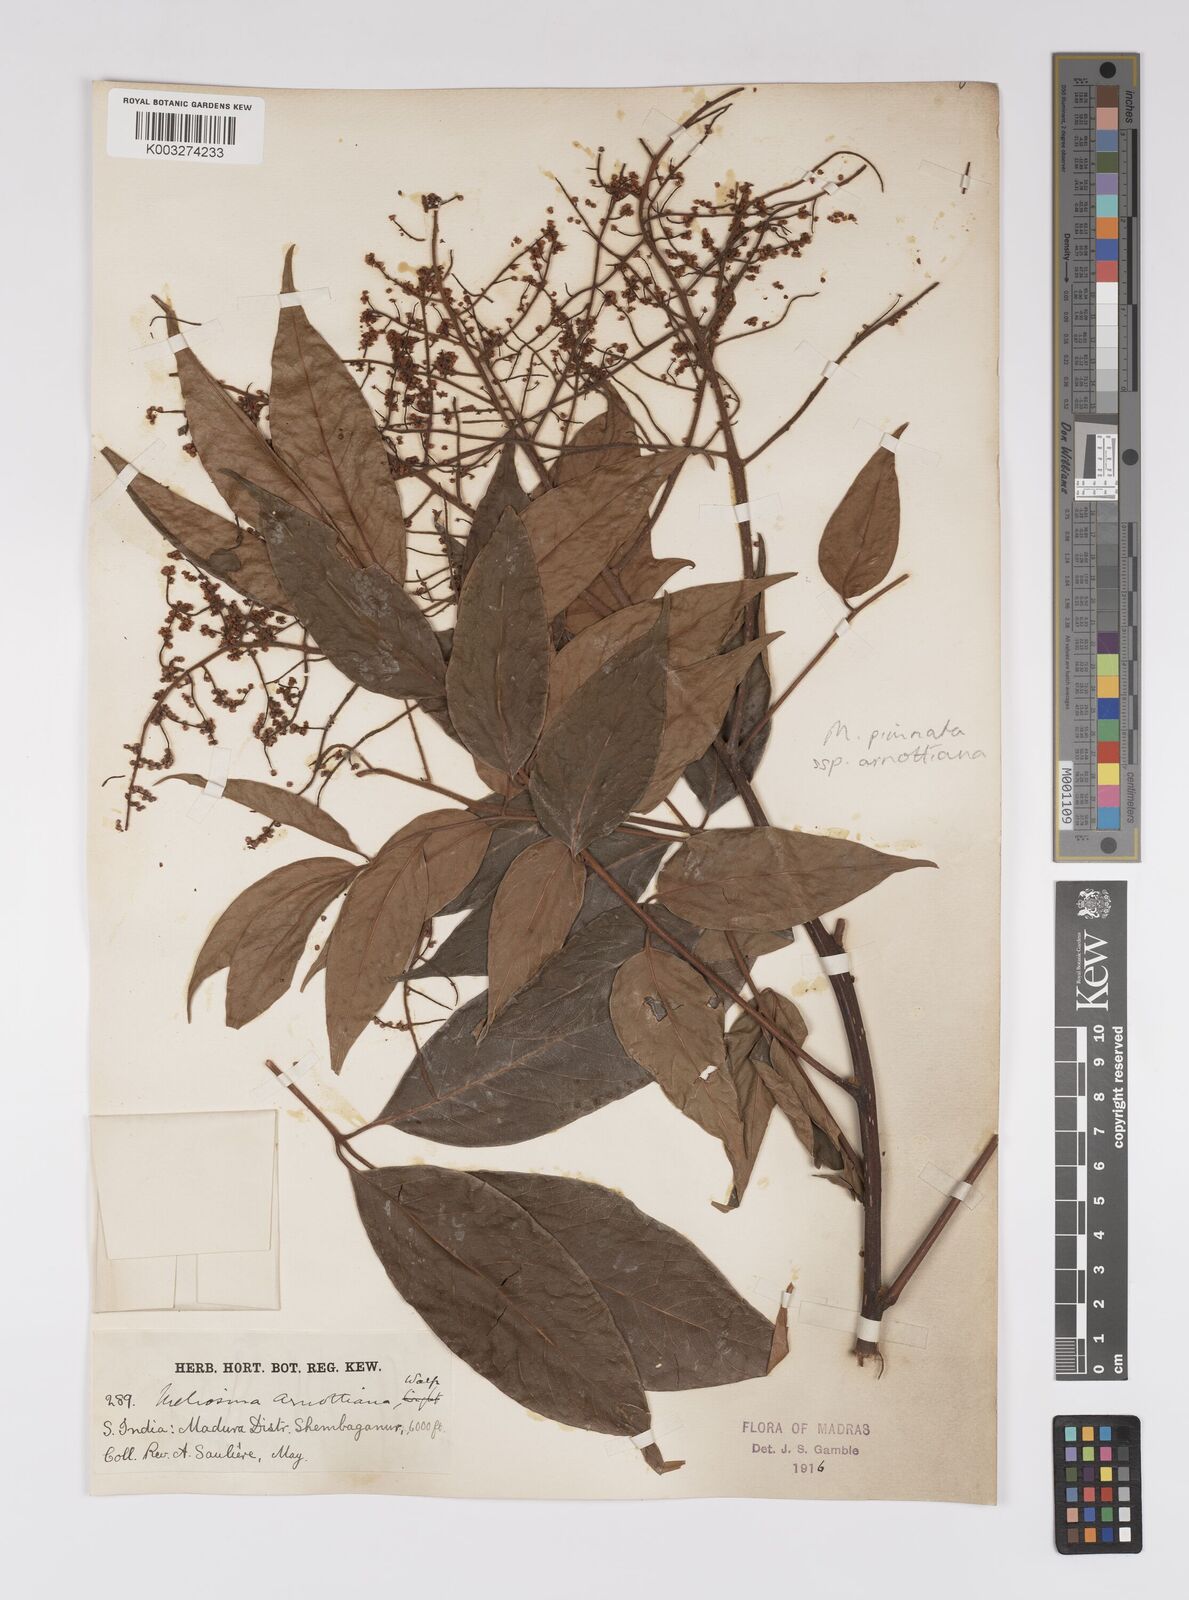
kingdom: Plantae
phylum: Tracheophyta
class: Magnoliopsida
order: Proteales
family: Sabiaceae
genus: Meliosma
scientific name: Meliosma rhoifolia
